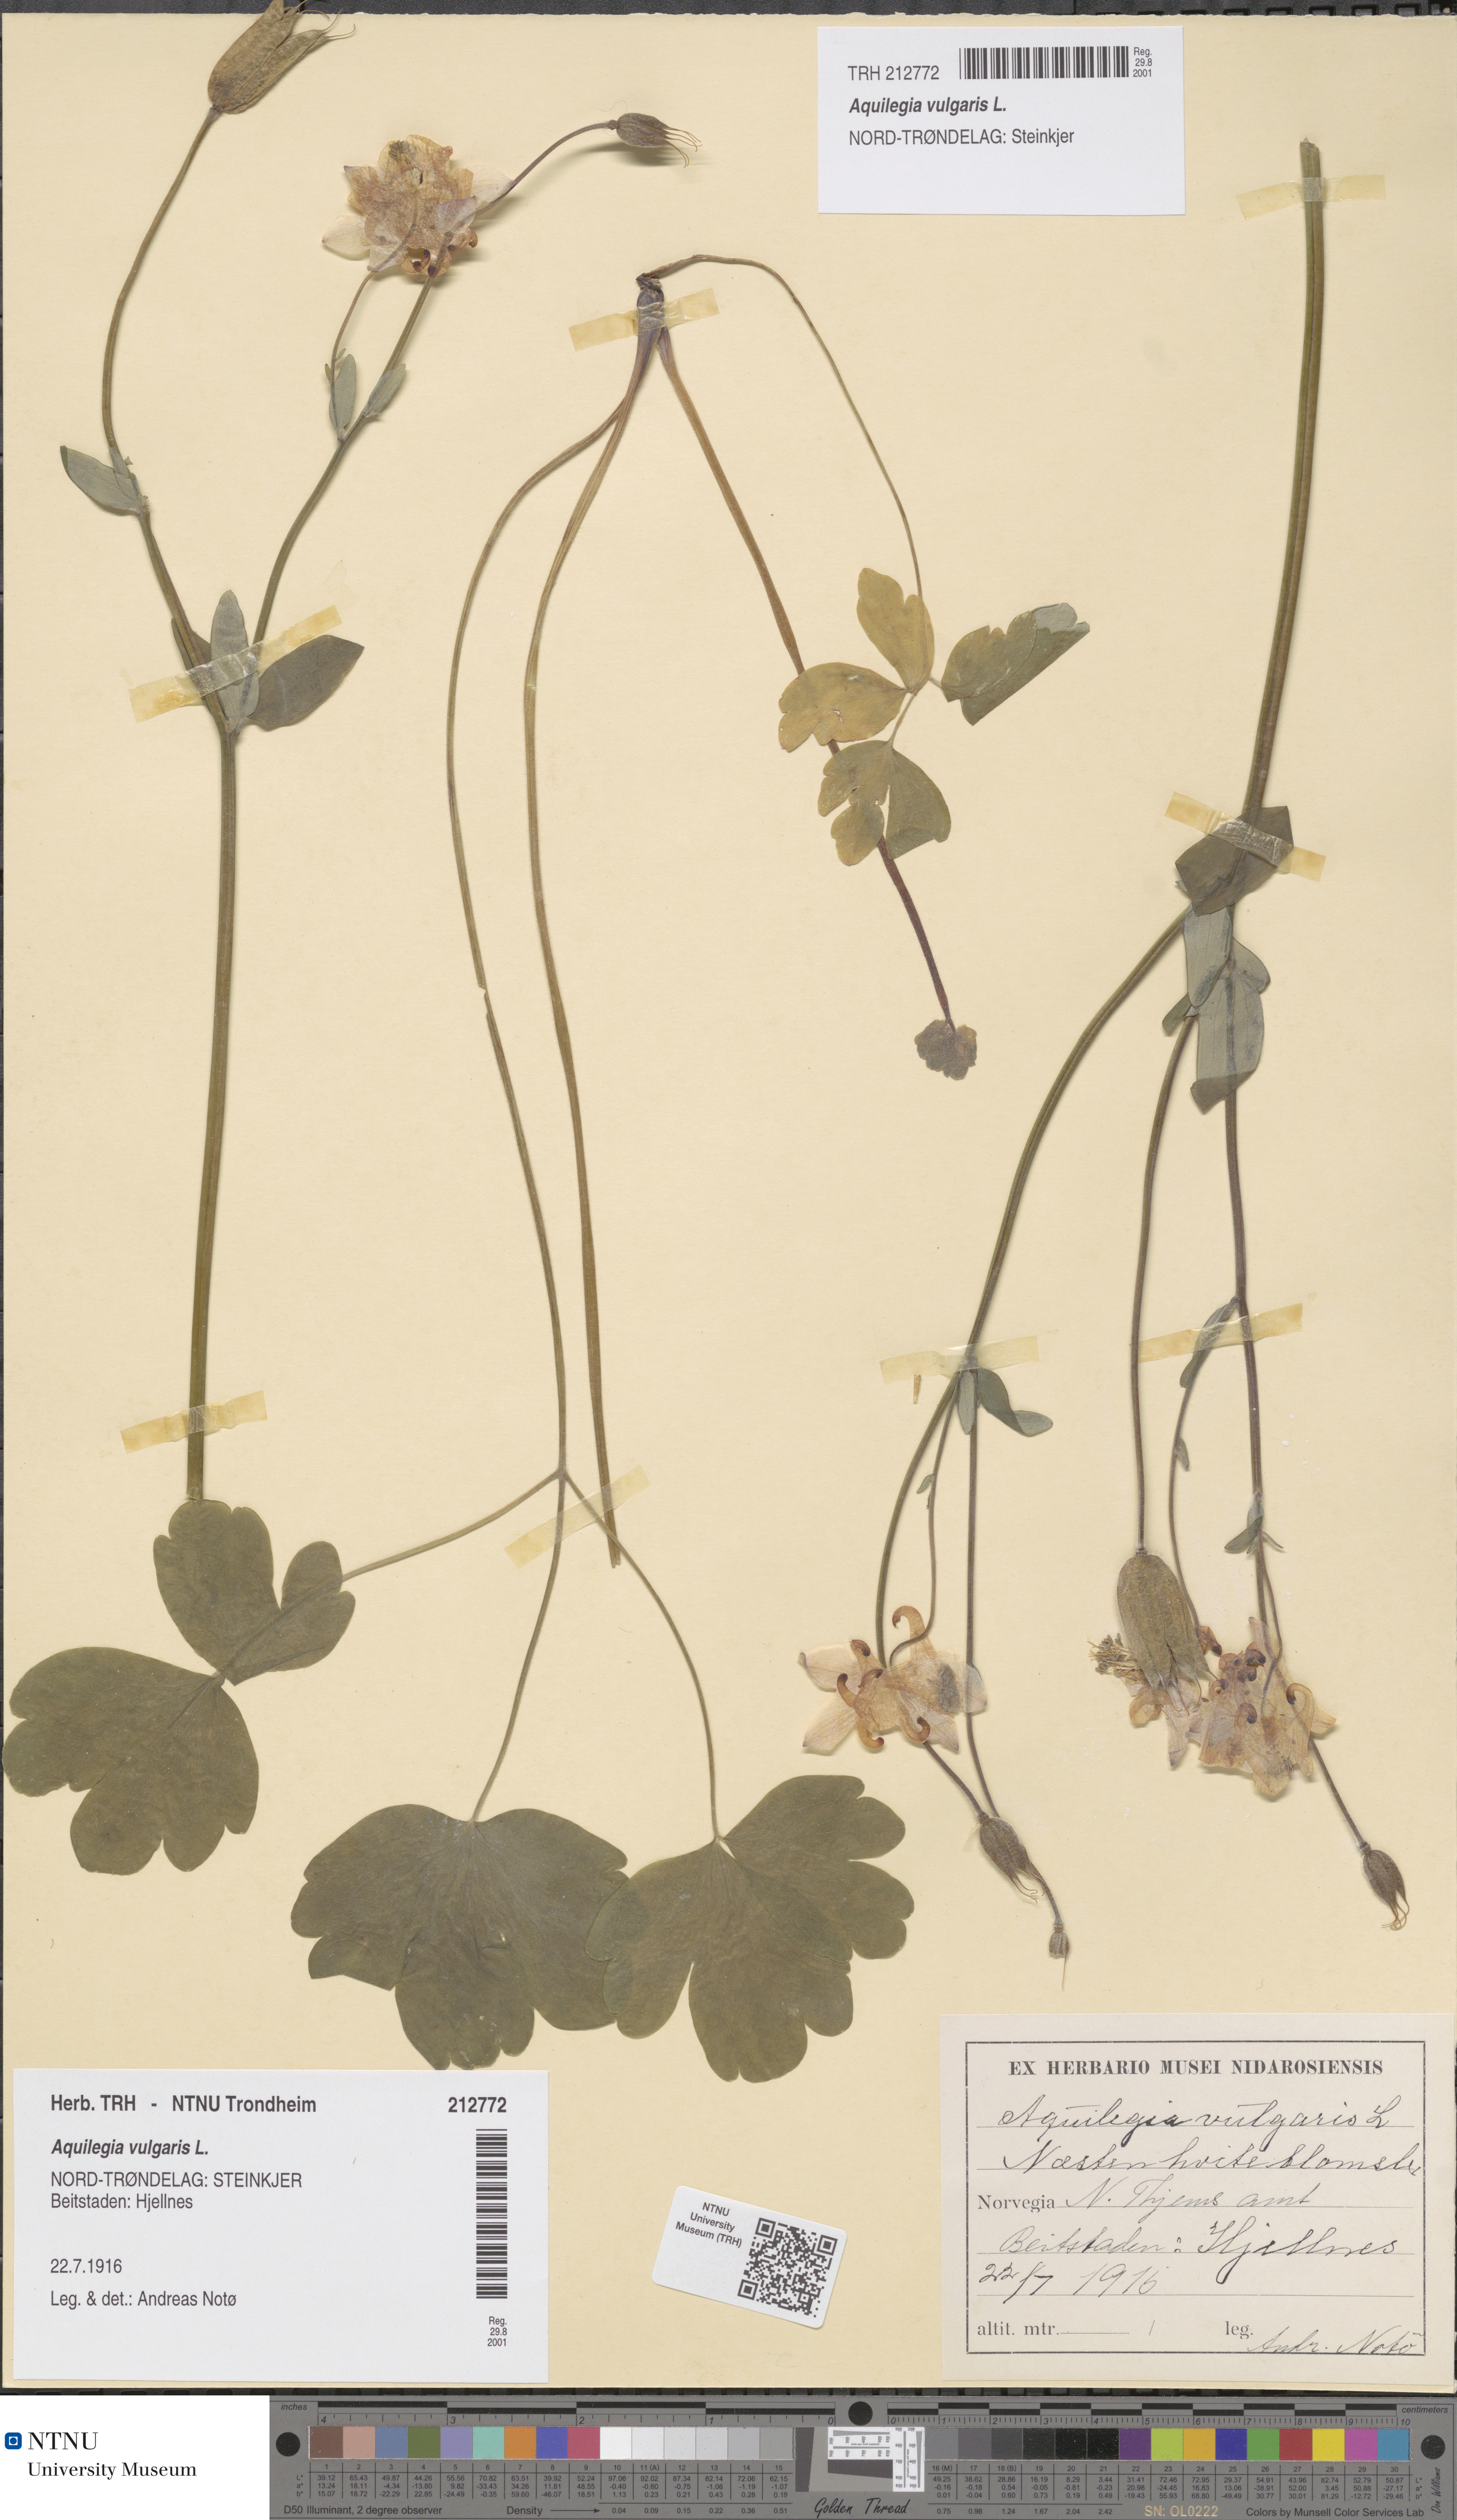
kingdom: Plantae
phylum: Tracheophyta
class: Magnoliopsida
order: Ranunculales
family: Ranunculaceae
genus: Aquilegia
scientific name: Aquilegia vulgaris
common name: Columbine
